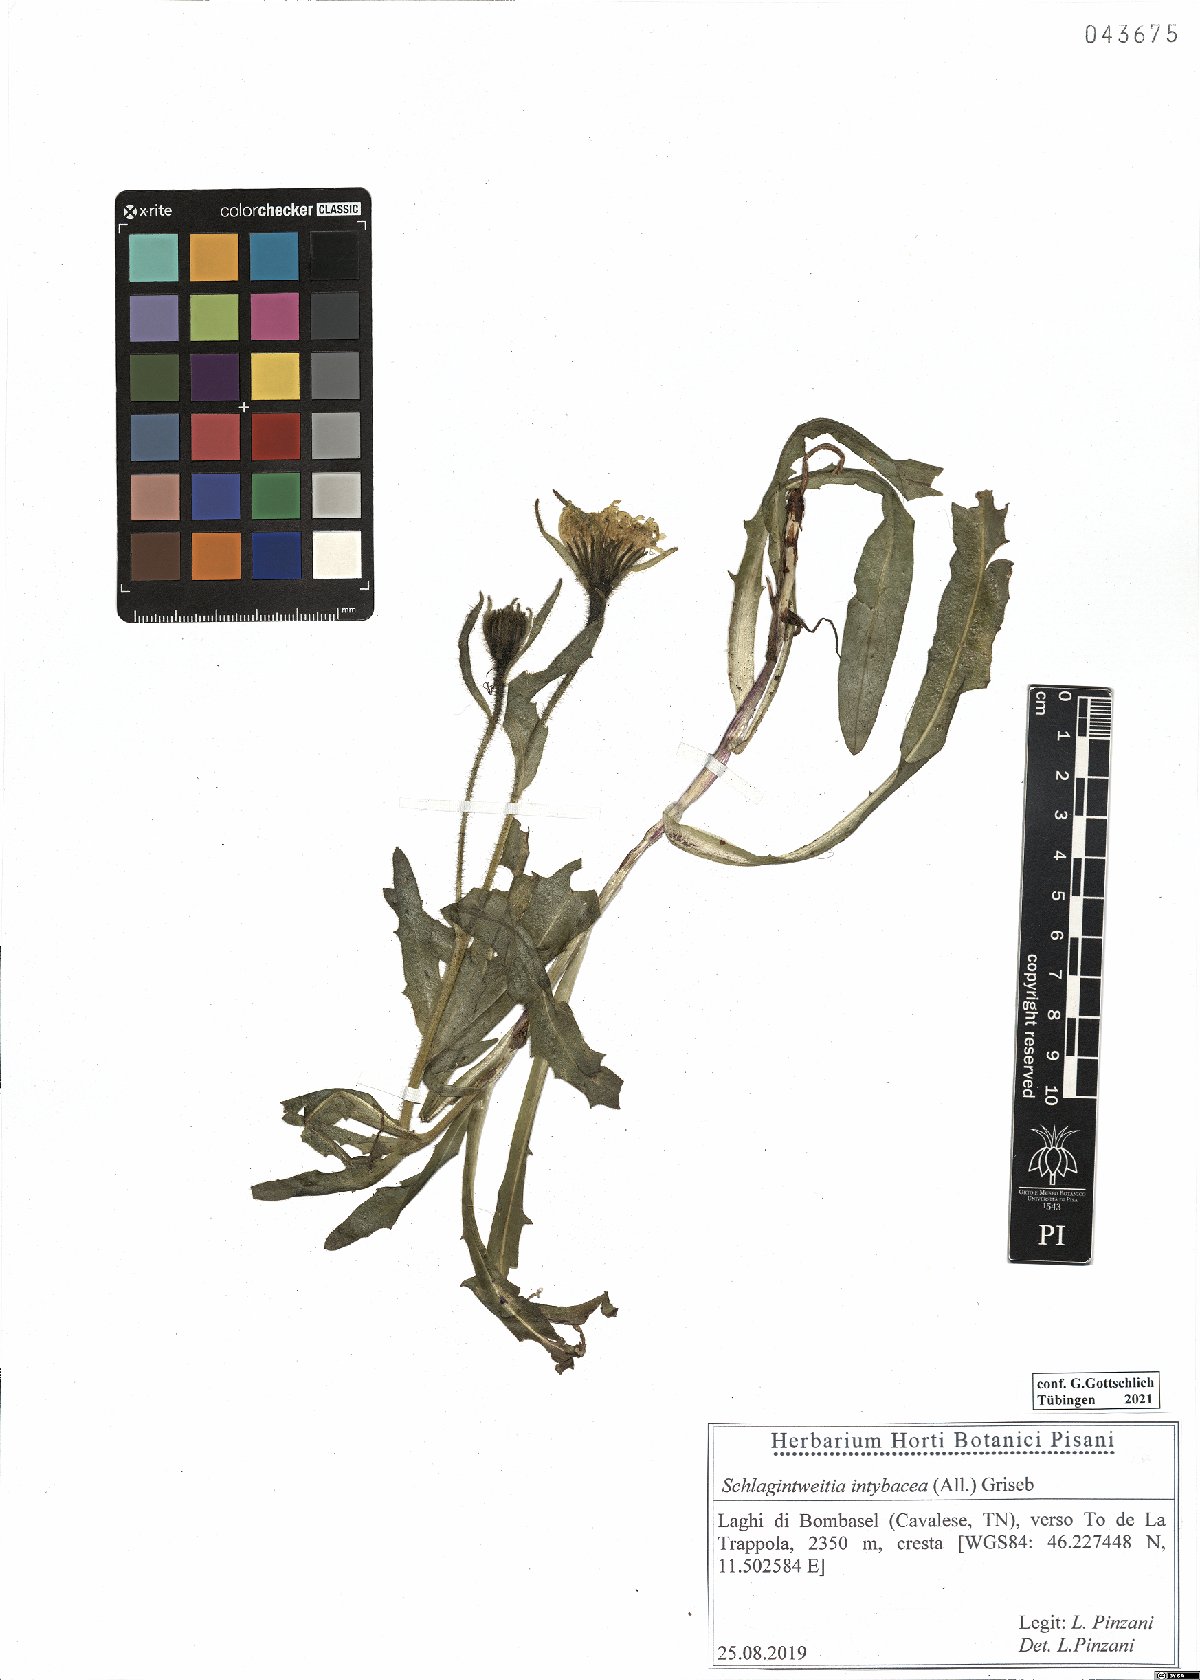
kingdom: Plantae
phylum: Tracheophyta
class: Magnoliopsida
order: Asterales
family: Asteraceae
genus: Schlagintweitia
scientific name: Schlagintweitia intybacea
